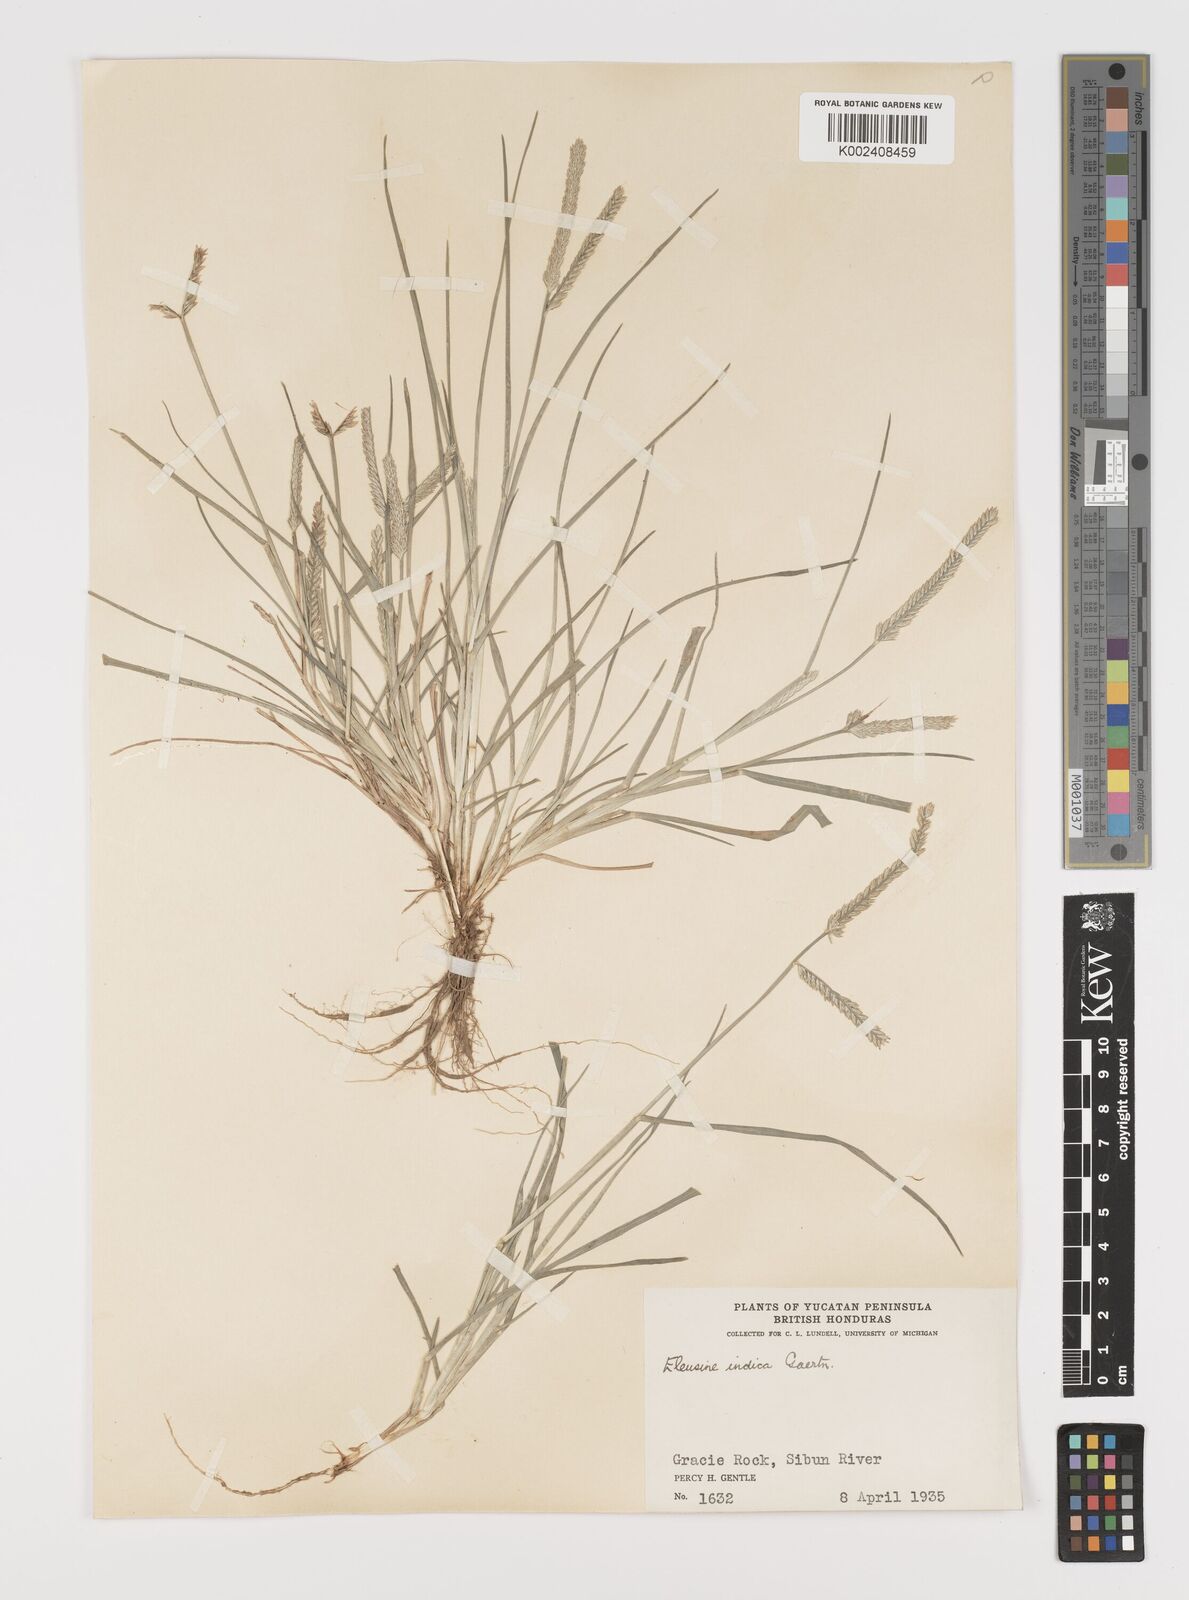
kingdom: Plantae
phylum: Tracheophyta
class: Liliopsida
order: Poales
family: Poaceae
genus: Eleusine
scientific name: Eleusine indica
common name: Yard-grass
